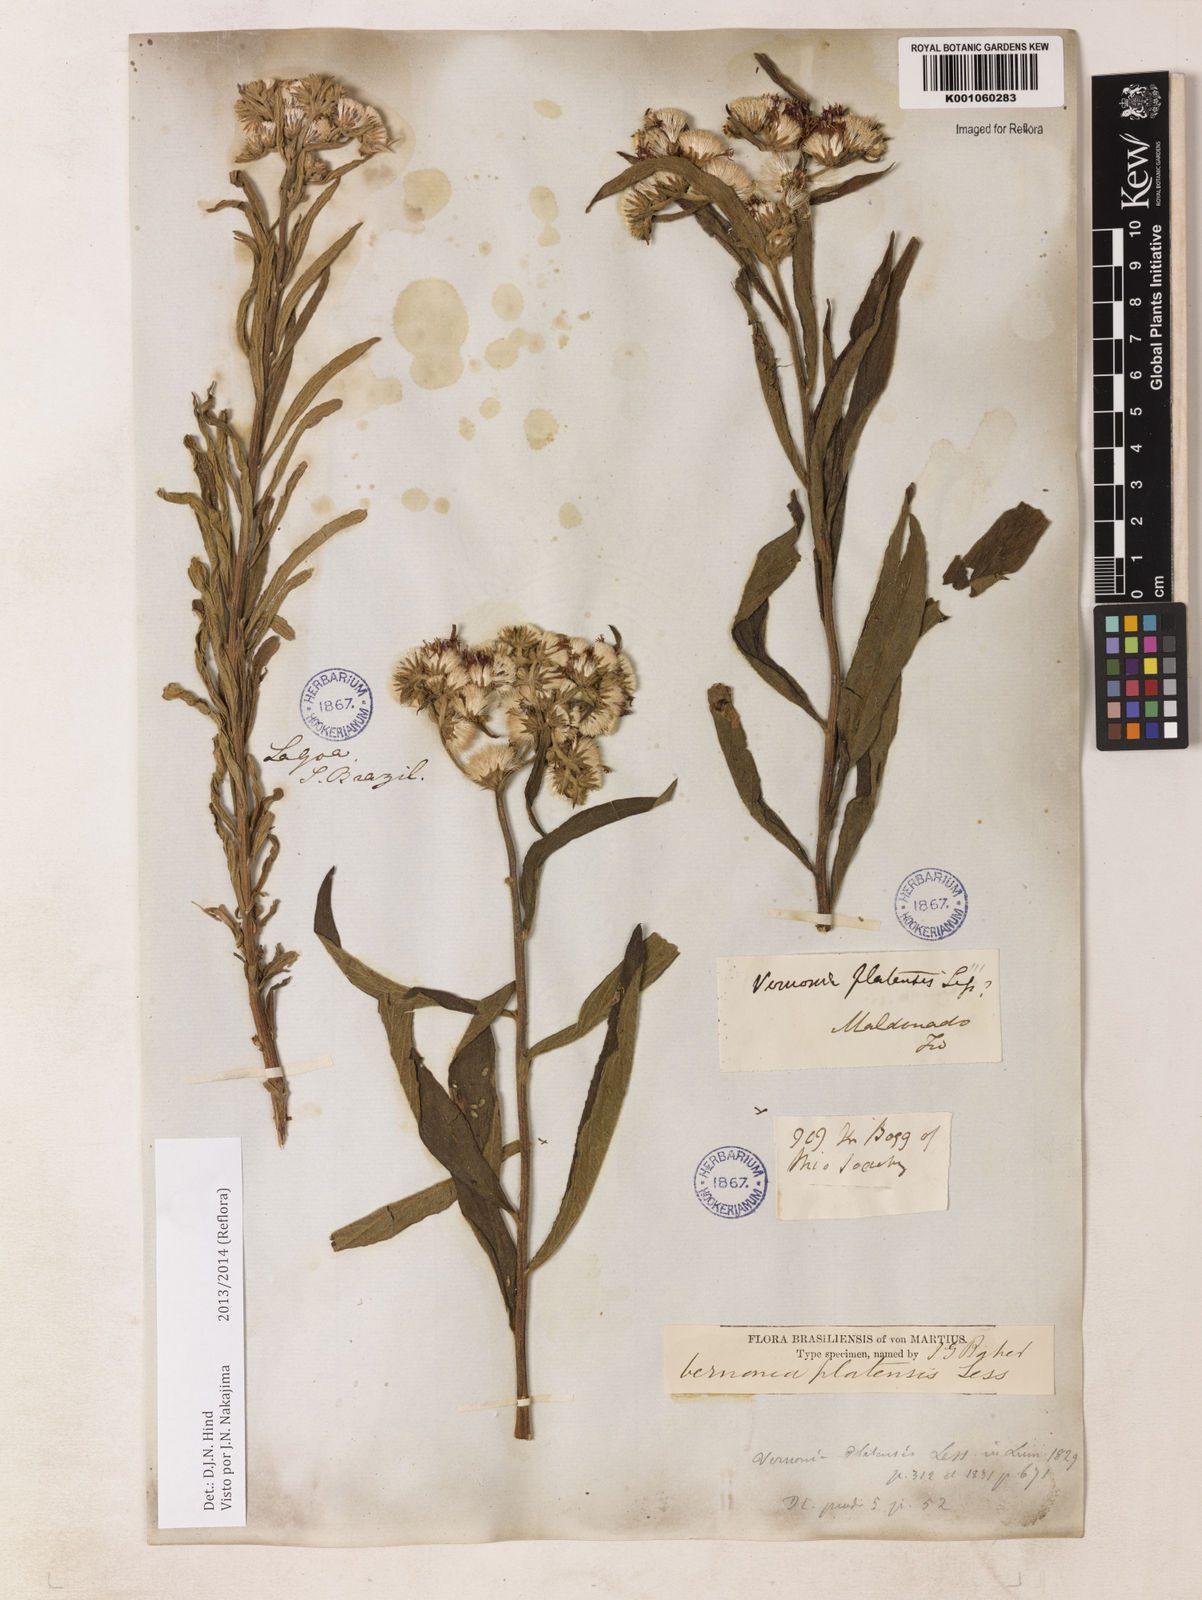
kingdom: Plantae
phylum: Tracheophyta
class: Magnoliopsida
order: Asterales
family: Asteraceae
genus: Chrysolaena
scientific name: Chrysolaena platensis
